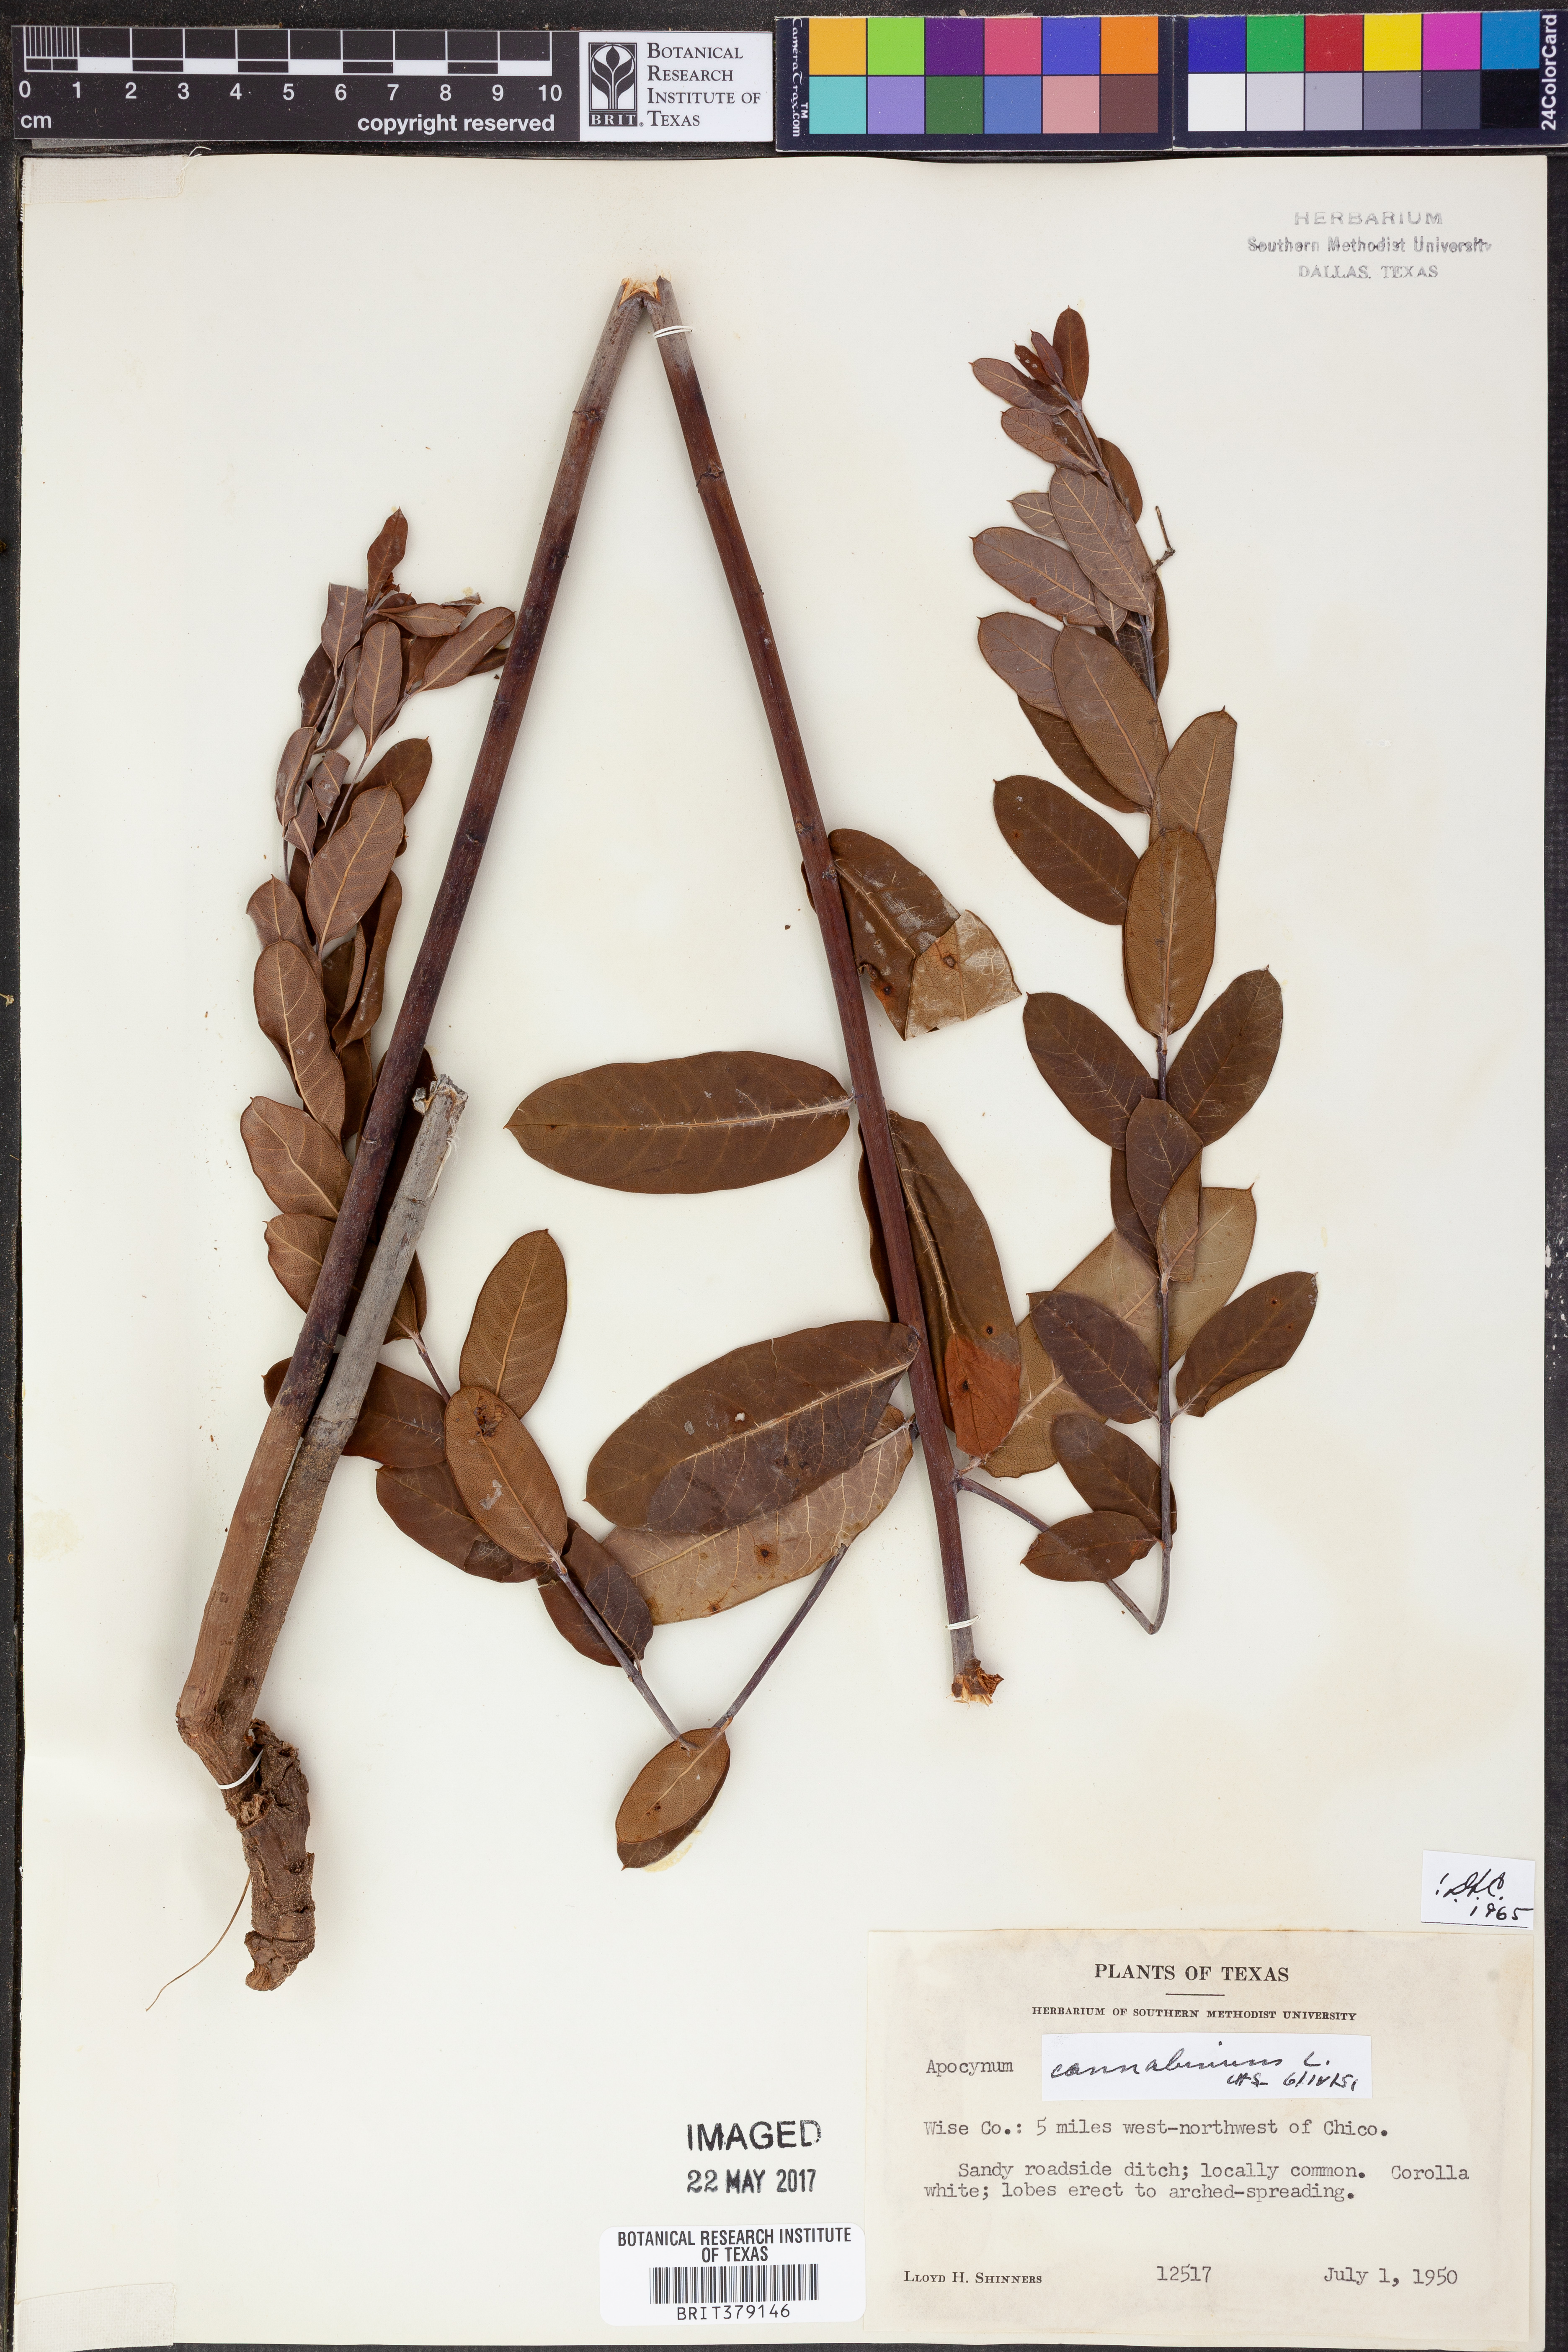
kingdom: Plantae
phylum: Tracheophyta
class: Magnoliopsida
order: Gentianales
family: Apocynaceae
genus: Apocynum
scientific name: Apocynum cannabinum
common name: Hemp dogbane
